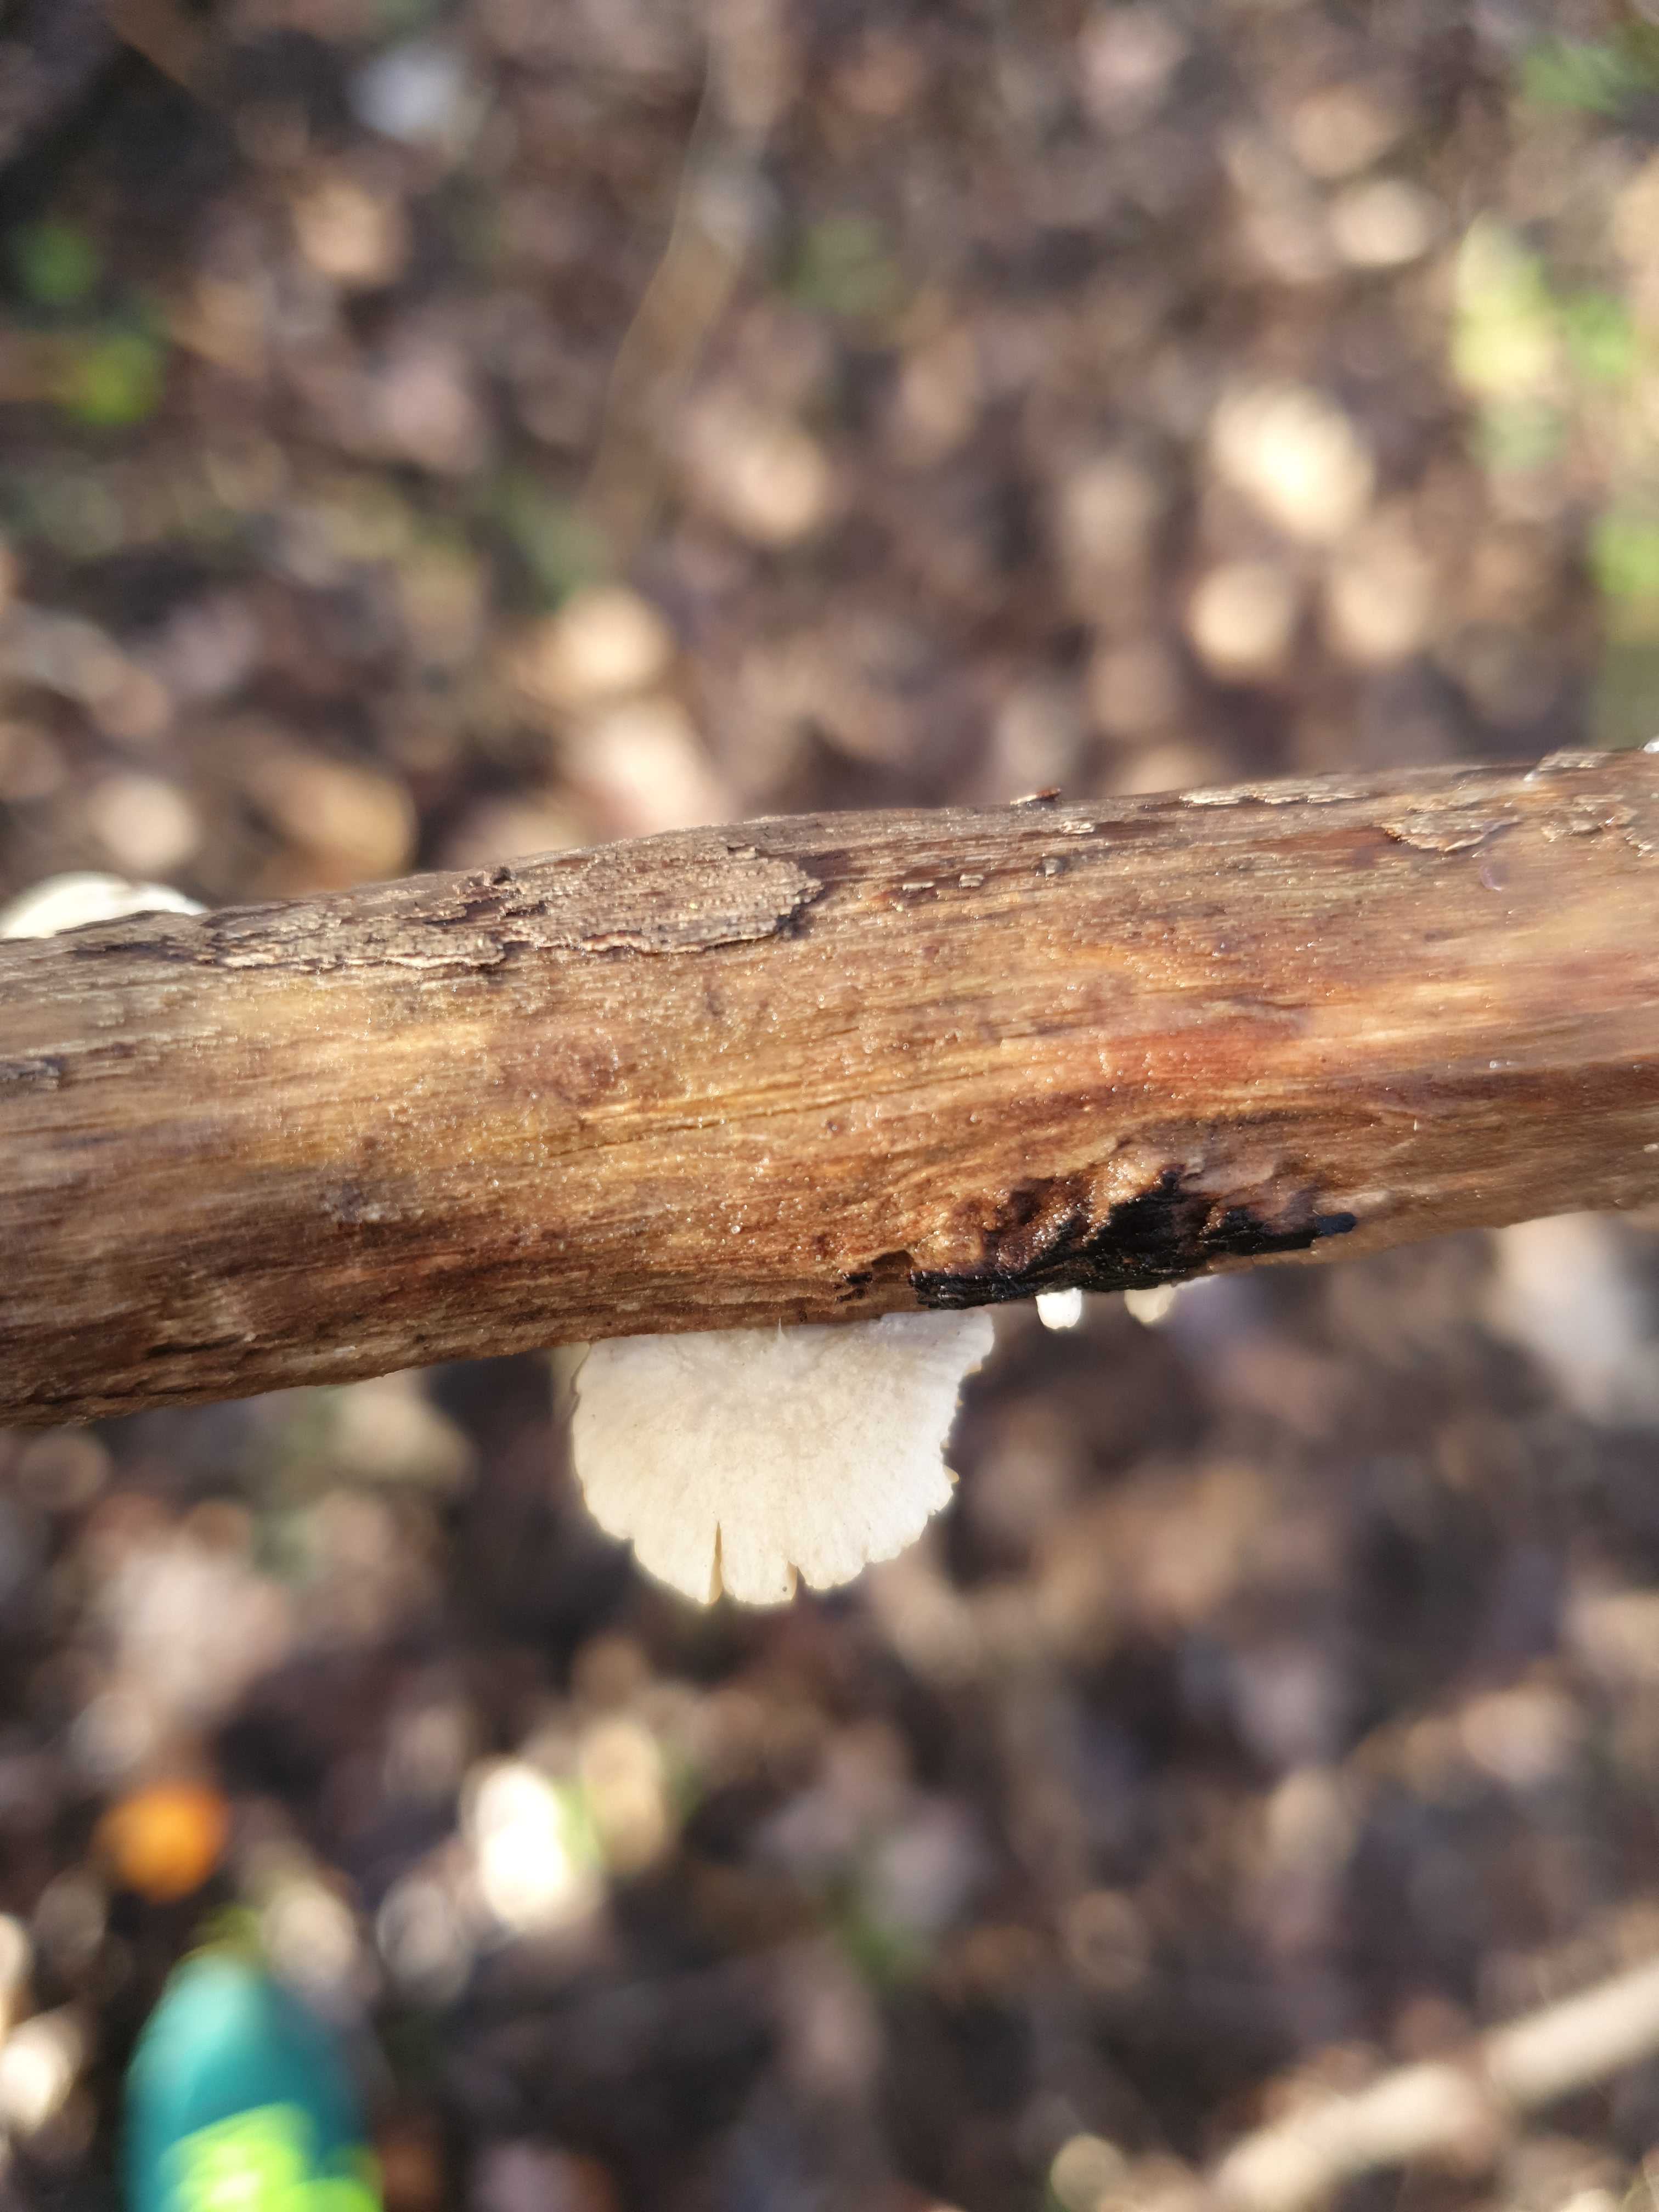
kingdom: Fungi
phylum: Basidiomycota
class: Agaricomycetes
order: Agaricales
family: Crepidotaceae
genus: Crepidotus
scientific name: Crepidotus
